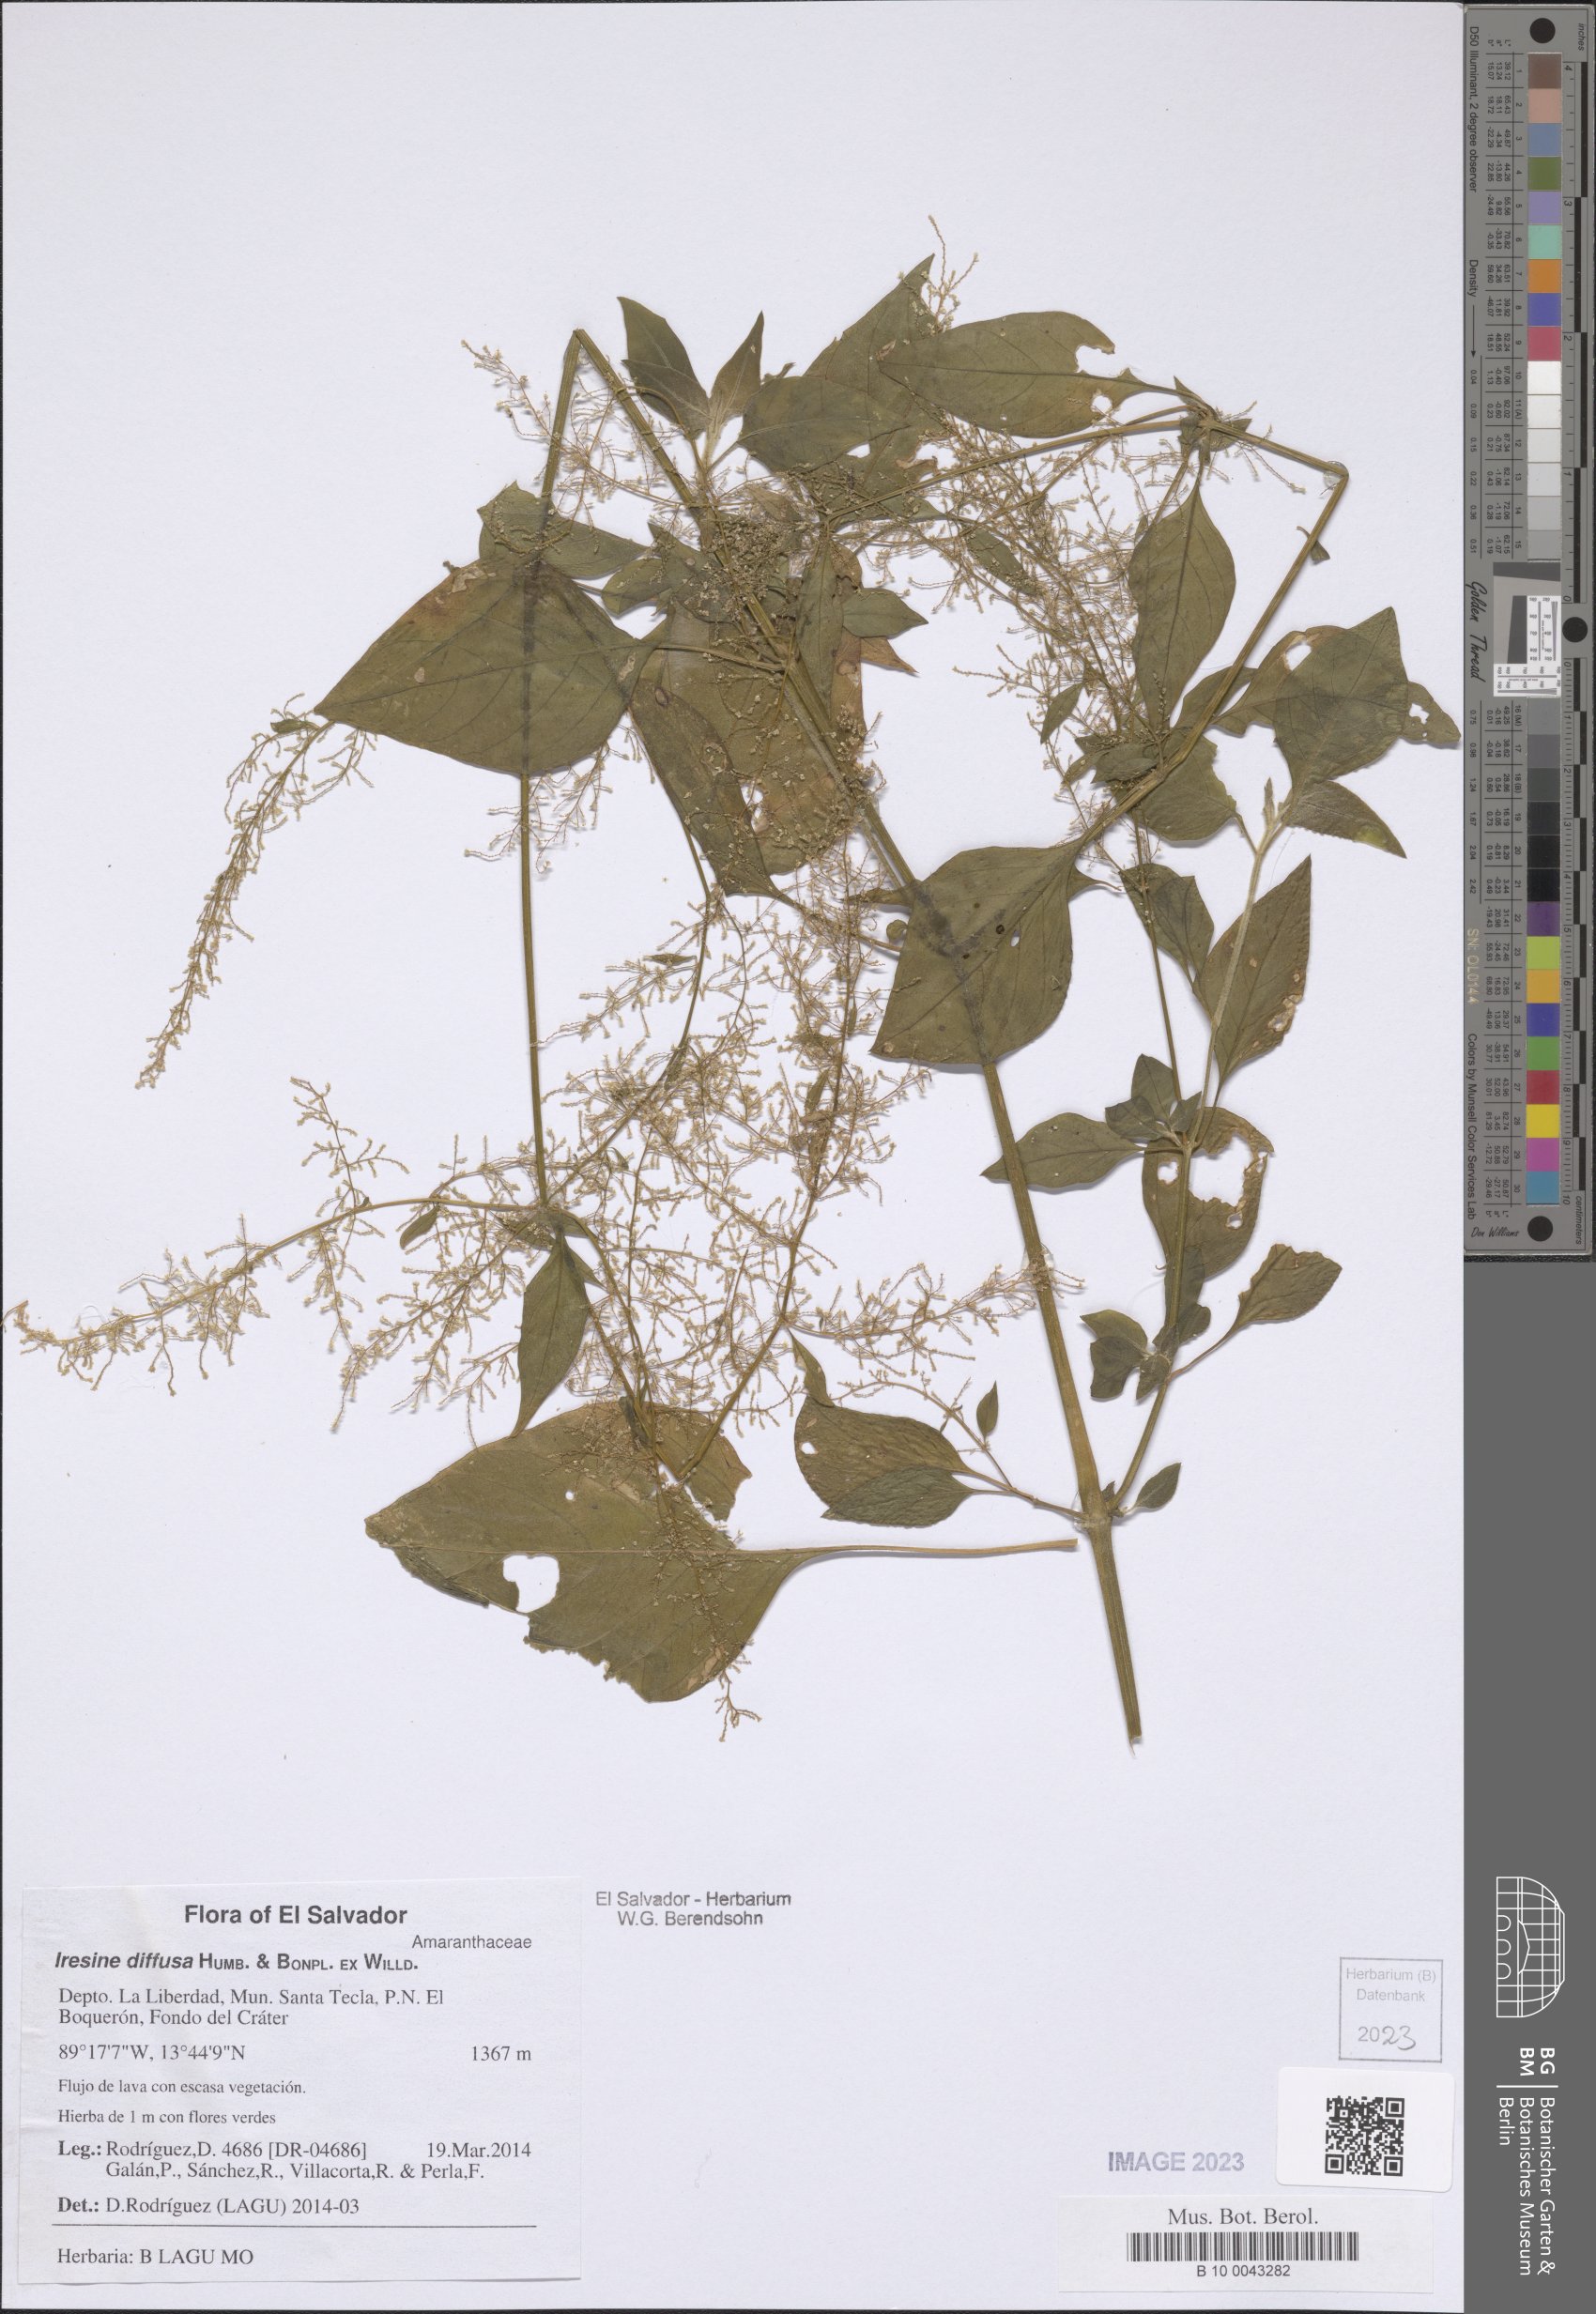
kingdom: Plantae
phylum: Tracheophyta
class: Magnoliopsida
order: Caryophyllales
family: Amaranthaceae
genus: Iresine
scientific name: Iresine diffusa
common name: Juba's-bush
